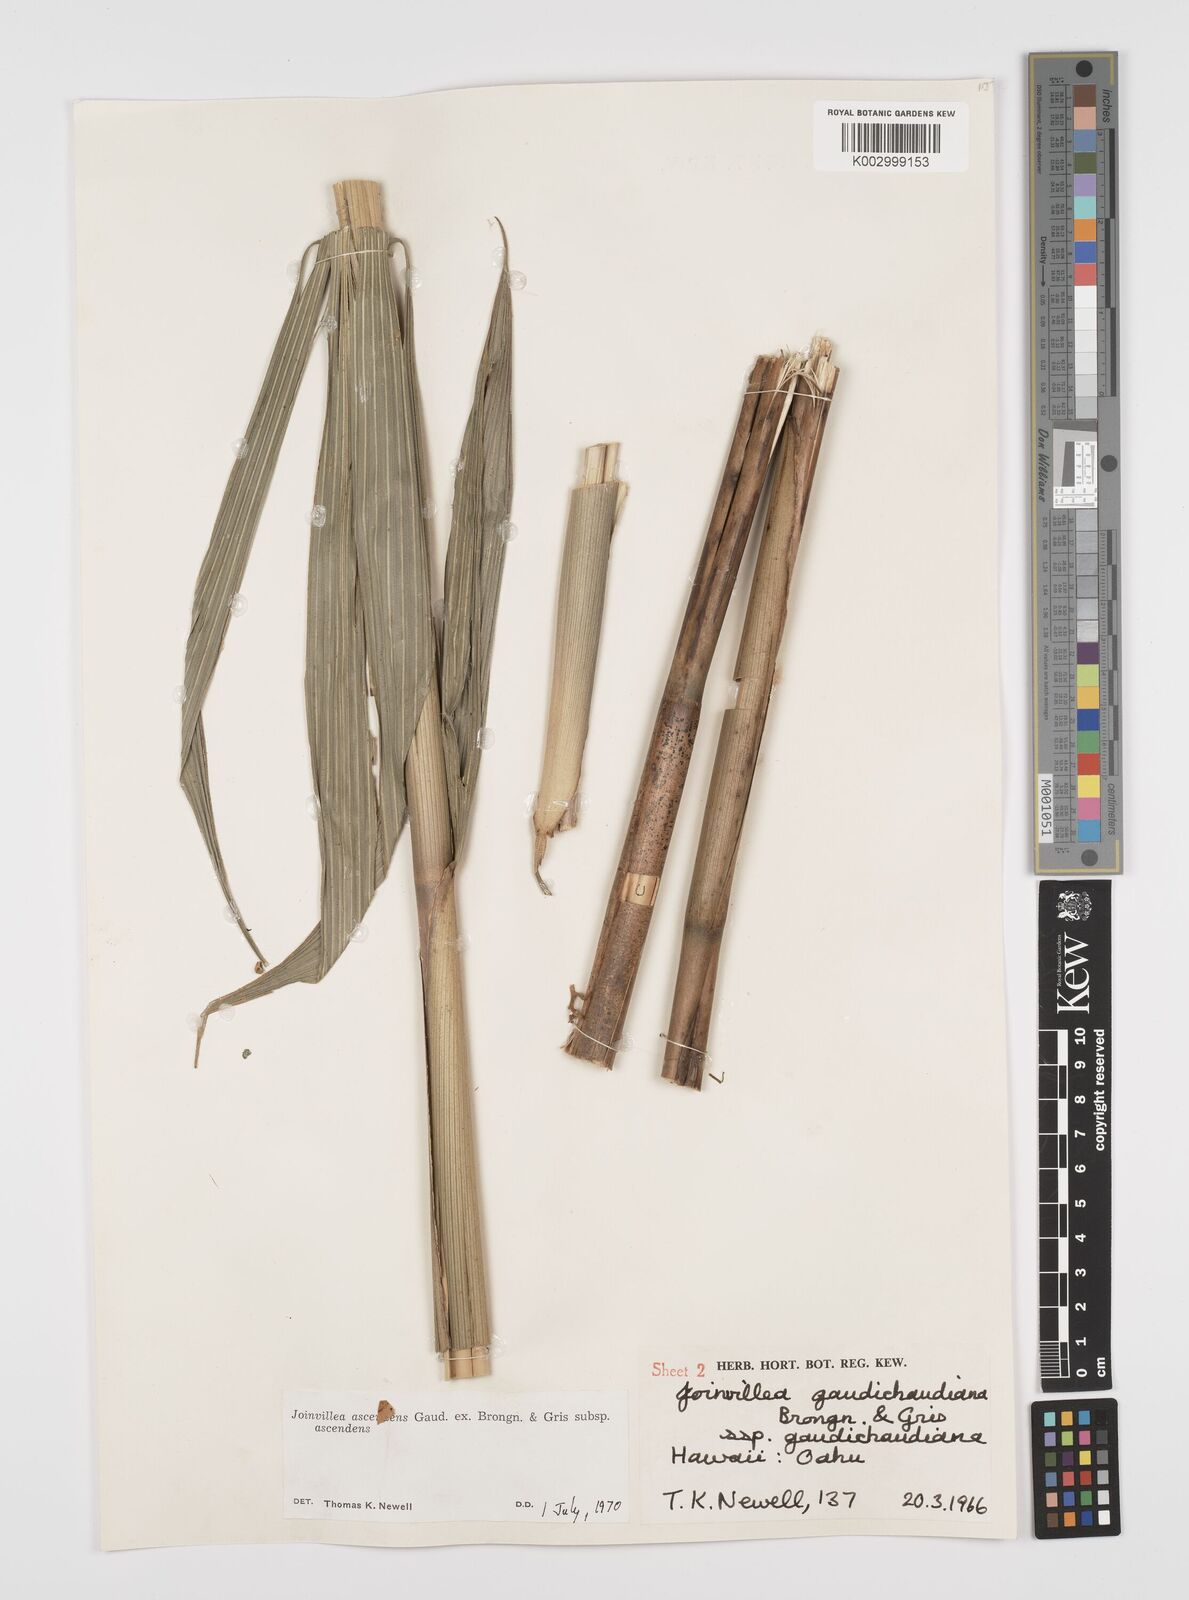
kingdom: Plantae
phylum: Tracheophyta
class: Liliopsida
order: Poales
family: Joinvilleaceae
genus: Joinvillea
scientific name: Joinvillea ascendens
